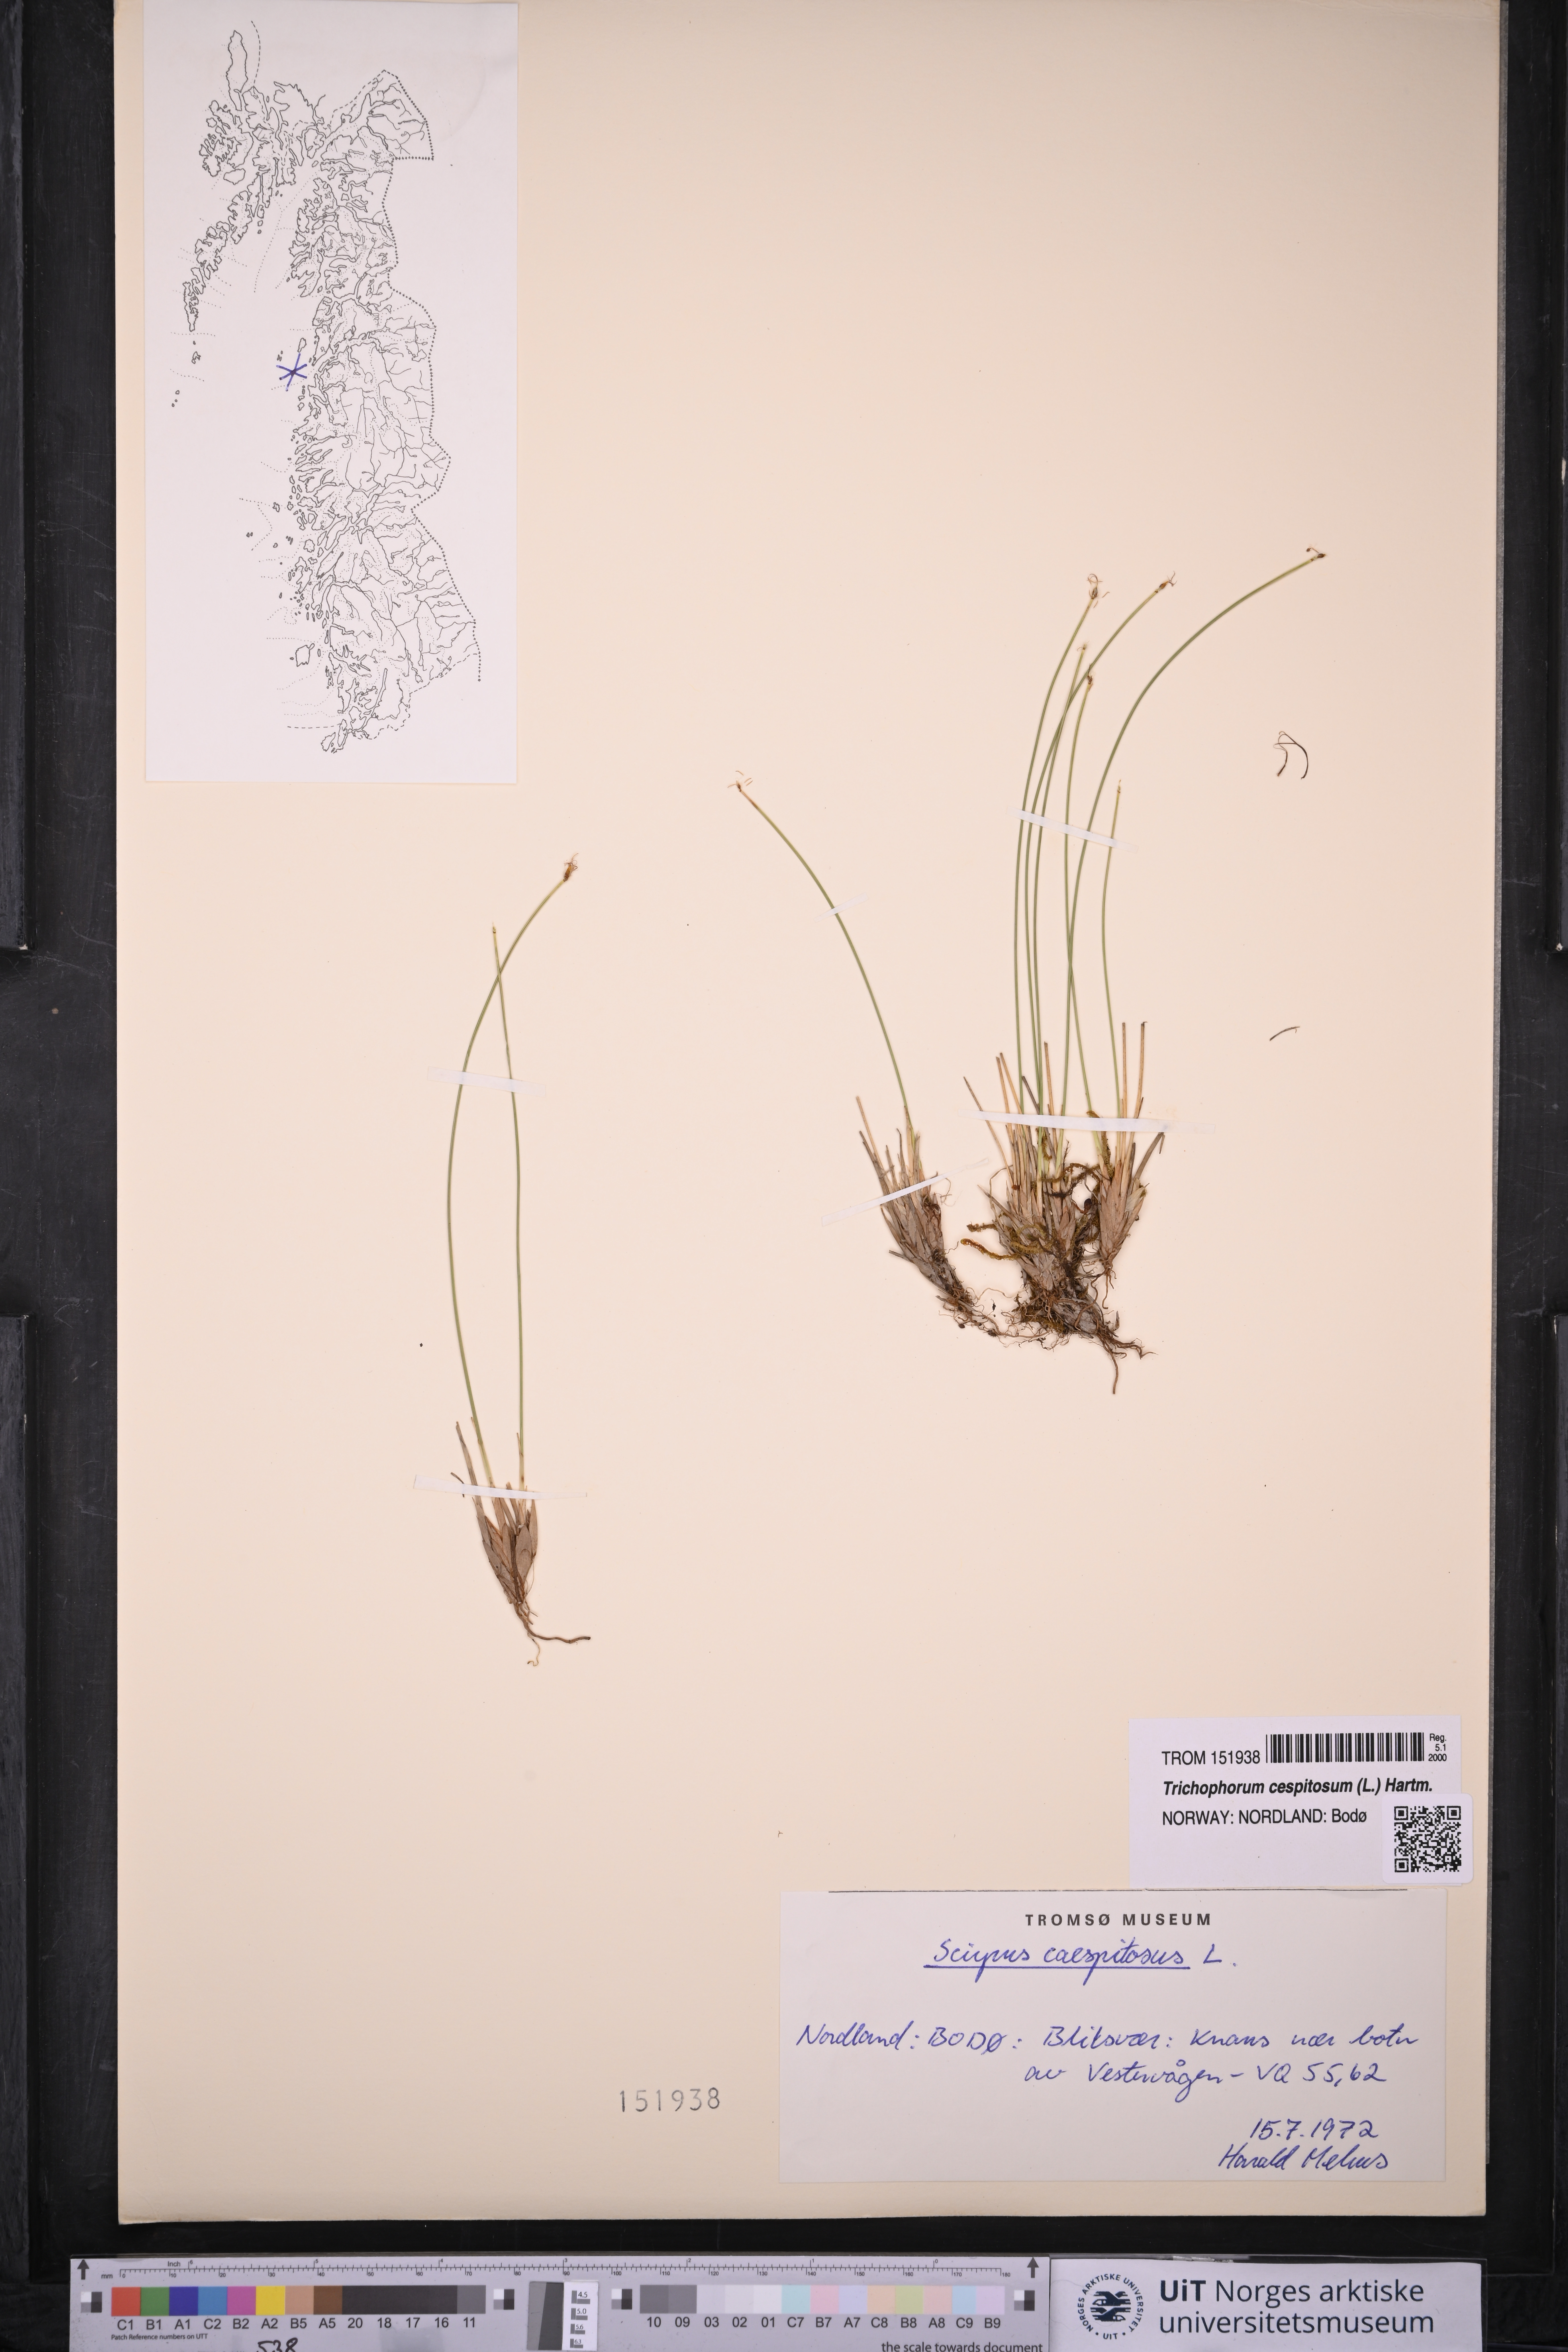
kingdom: Plantae
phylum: Tracheophyta
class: Liliopsida
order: Poales
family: Cyperaceae
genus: Trichophorum
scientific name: Trichophorum cespitosum
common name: Cespitose bulrush
